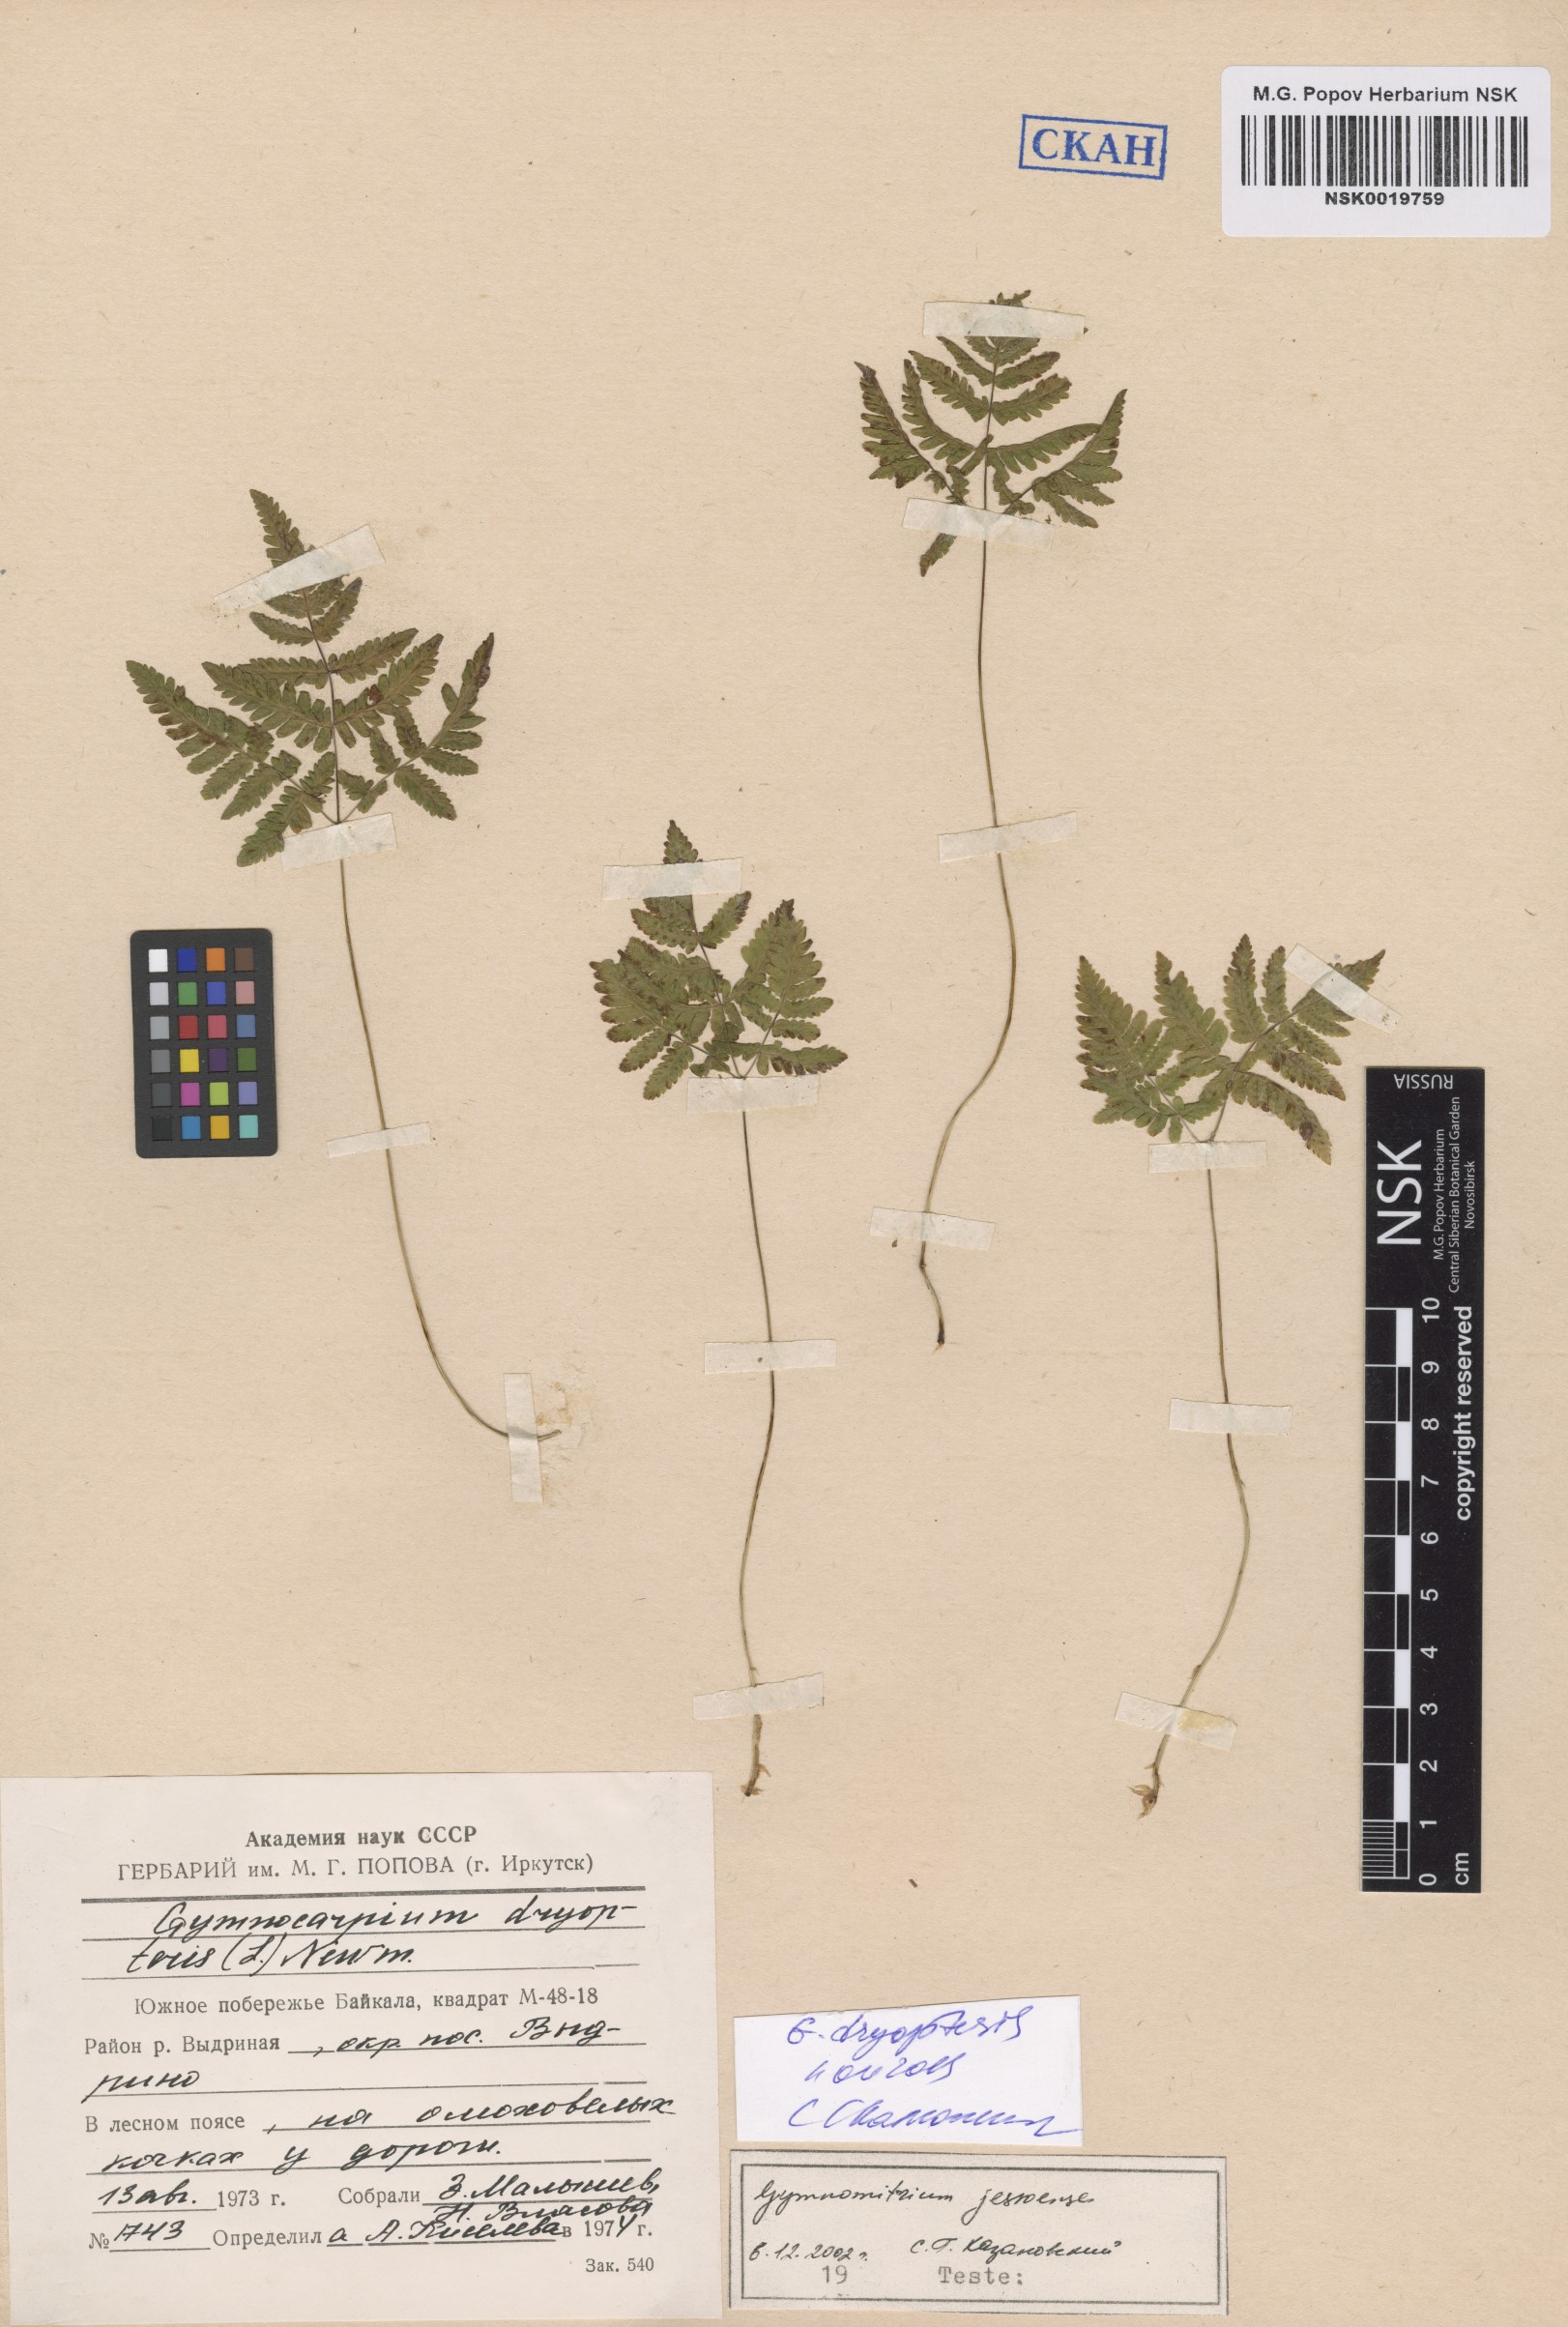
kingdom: Plantae
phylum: Tracheophyta
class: Polypodiopsida
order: Polypodiales
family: Cystopteridaceae
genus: Gymnocarpium
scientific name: Gymnocarpium dryopteris
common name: Oak fern
